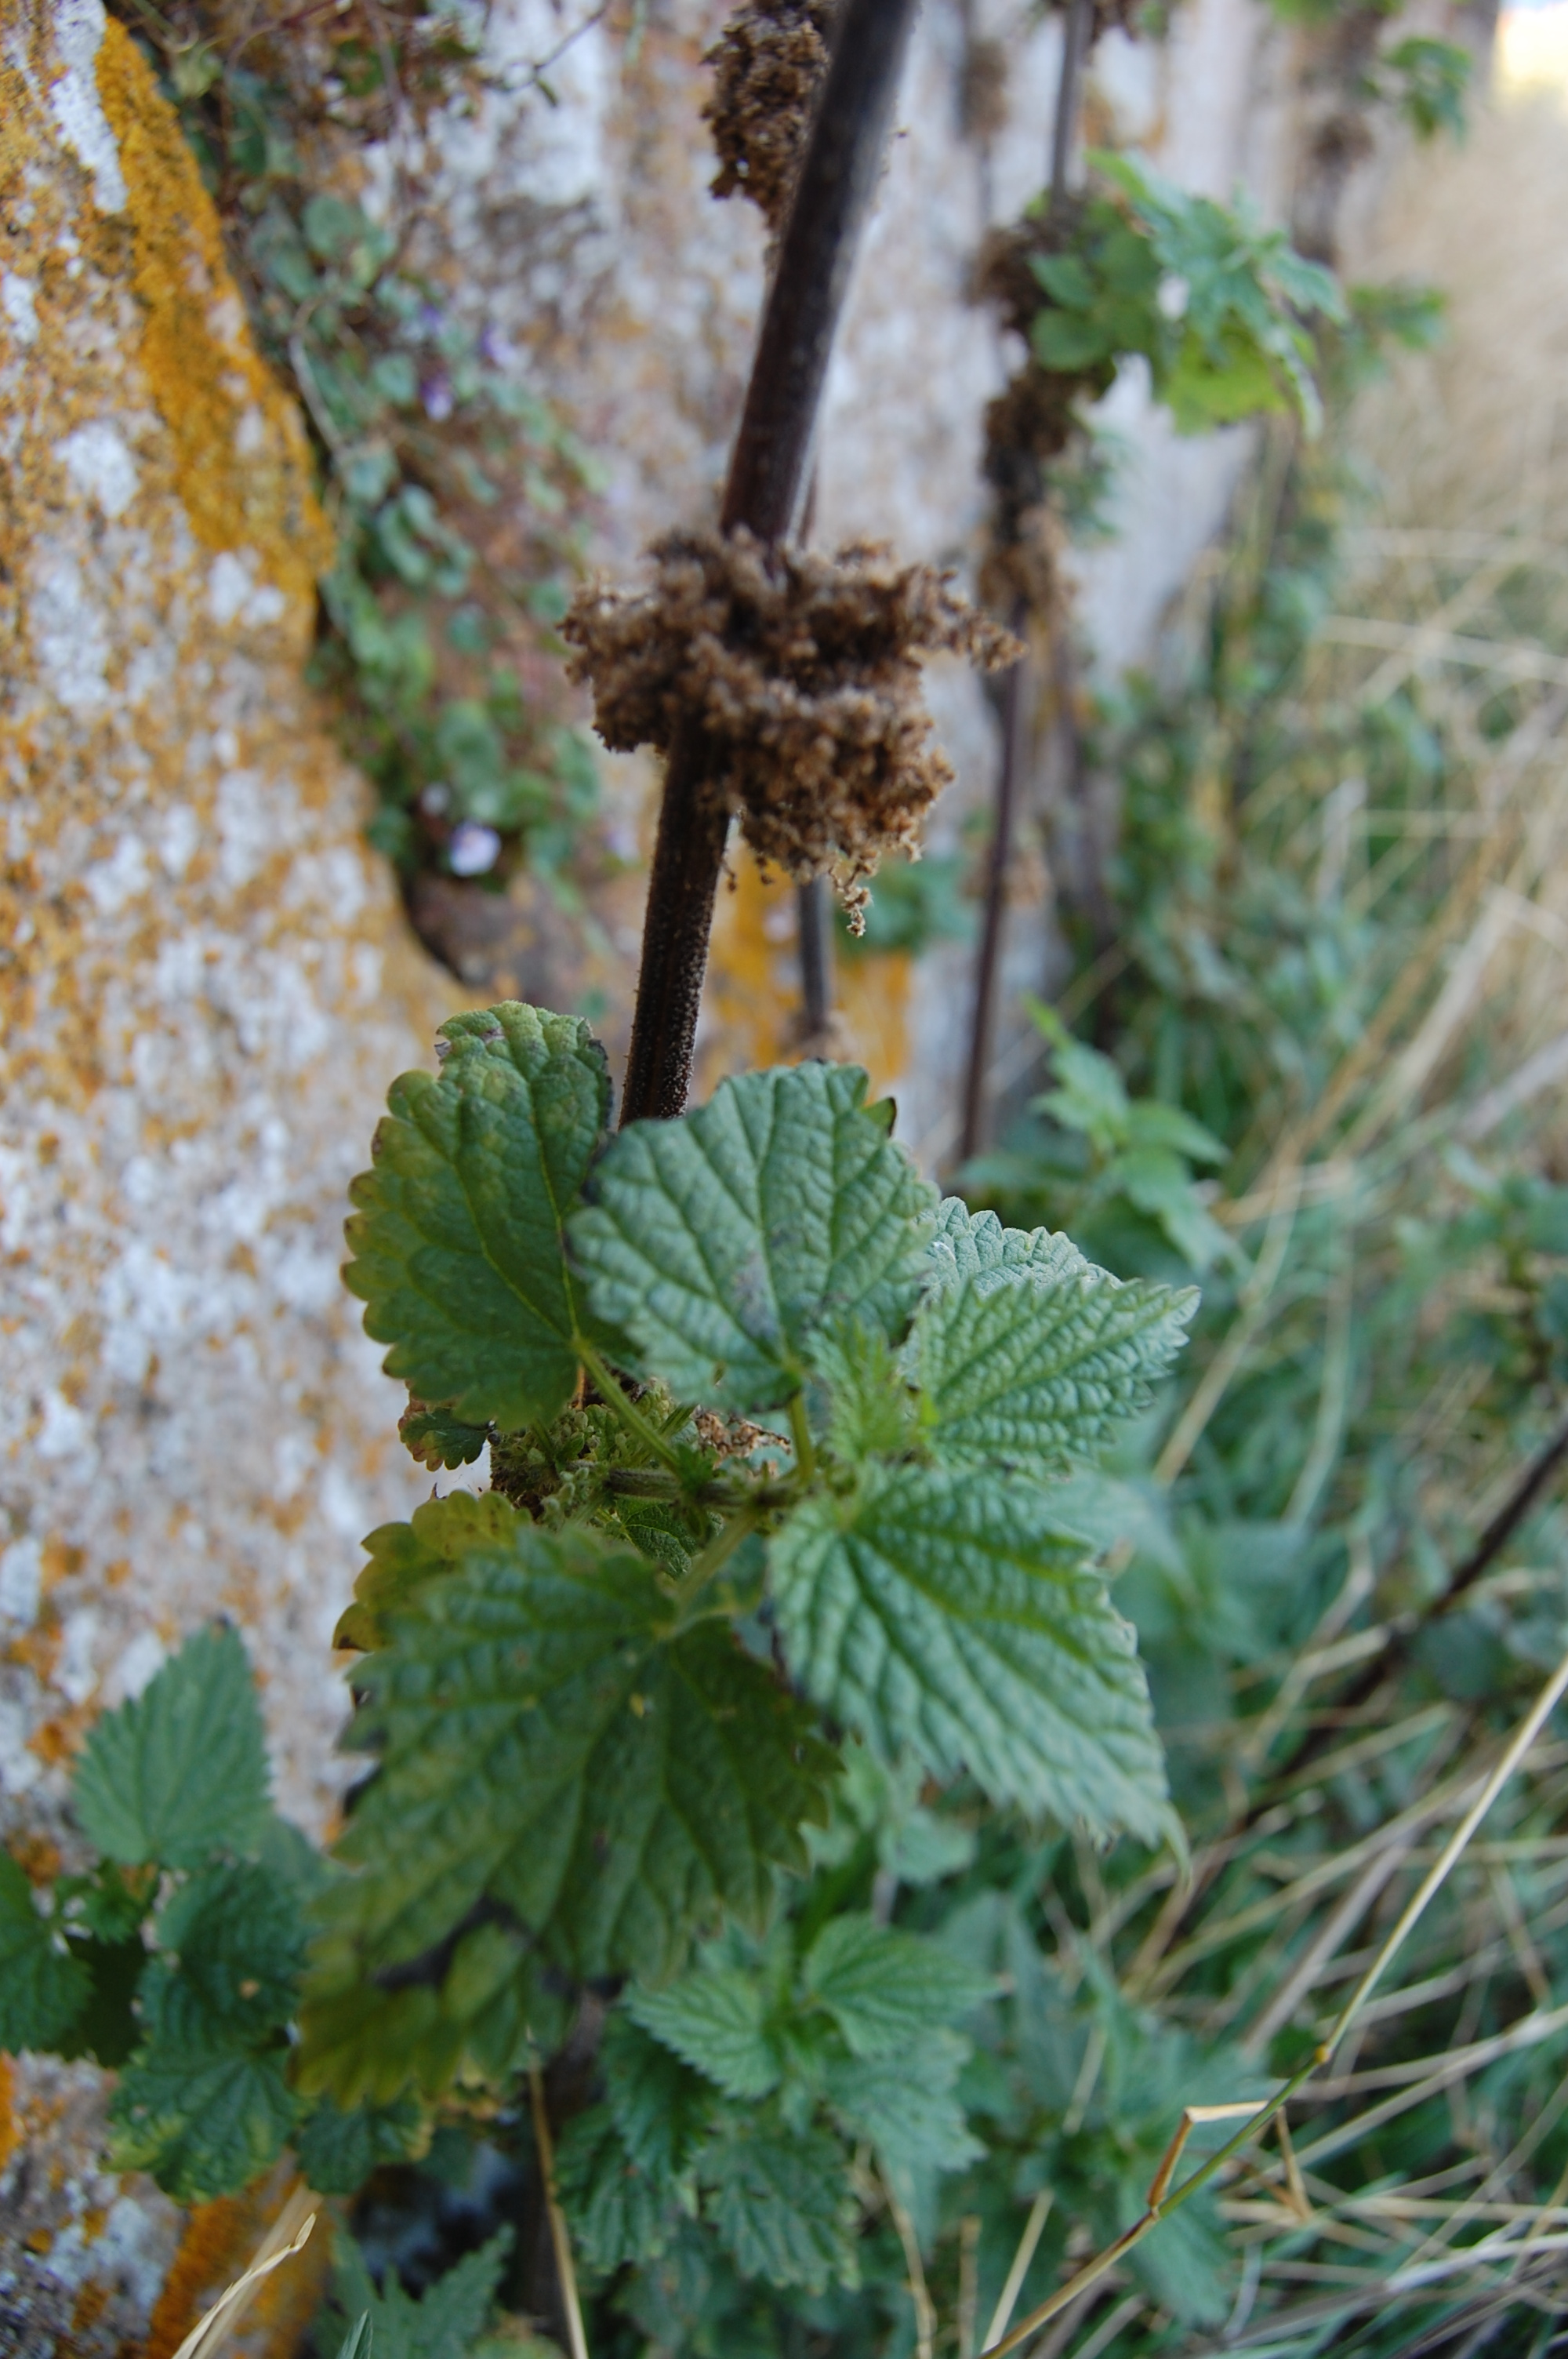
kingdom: Plantae
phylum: Tracheophyta
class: Magnoliopsida
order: Rosales
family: Urticaceae
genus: Urtica
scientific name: Urtica dioica
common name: Common nettle
